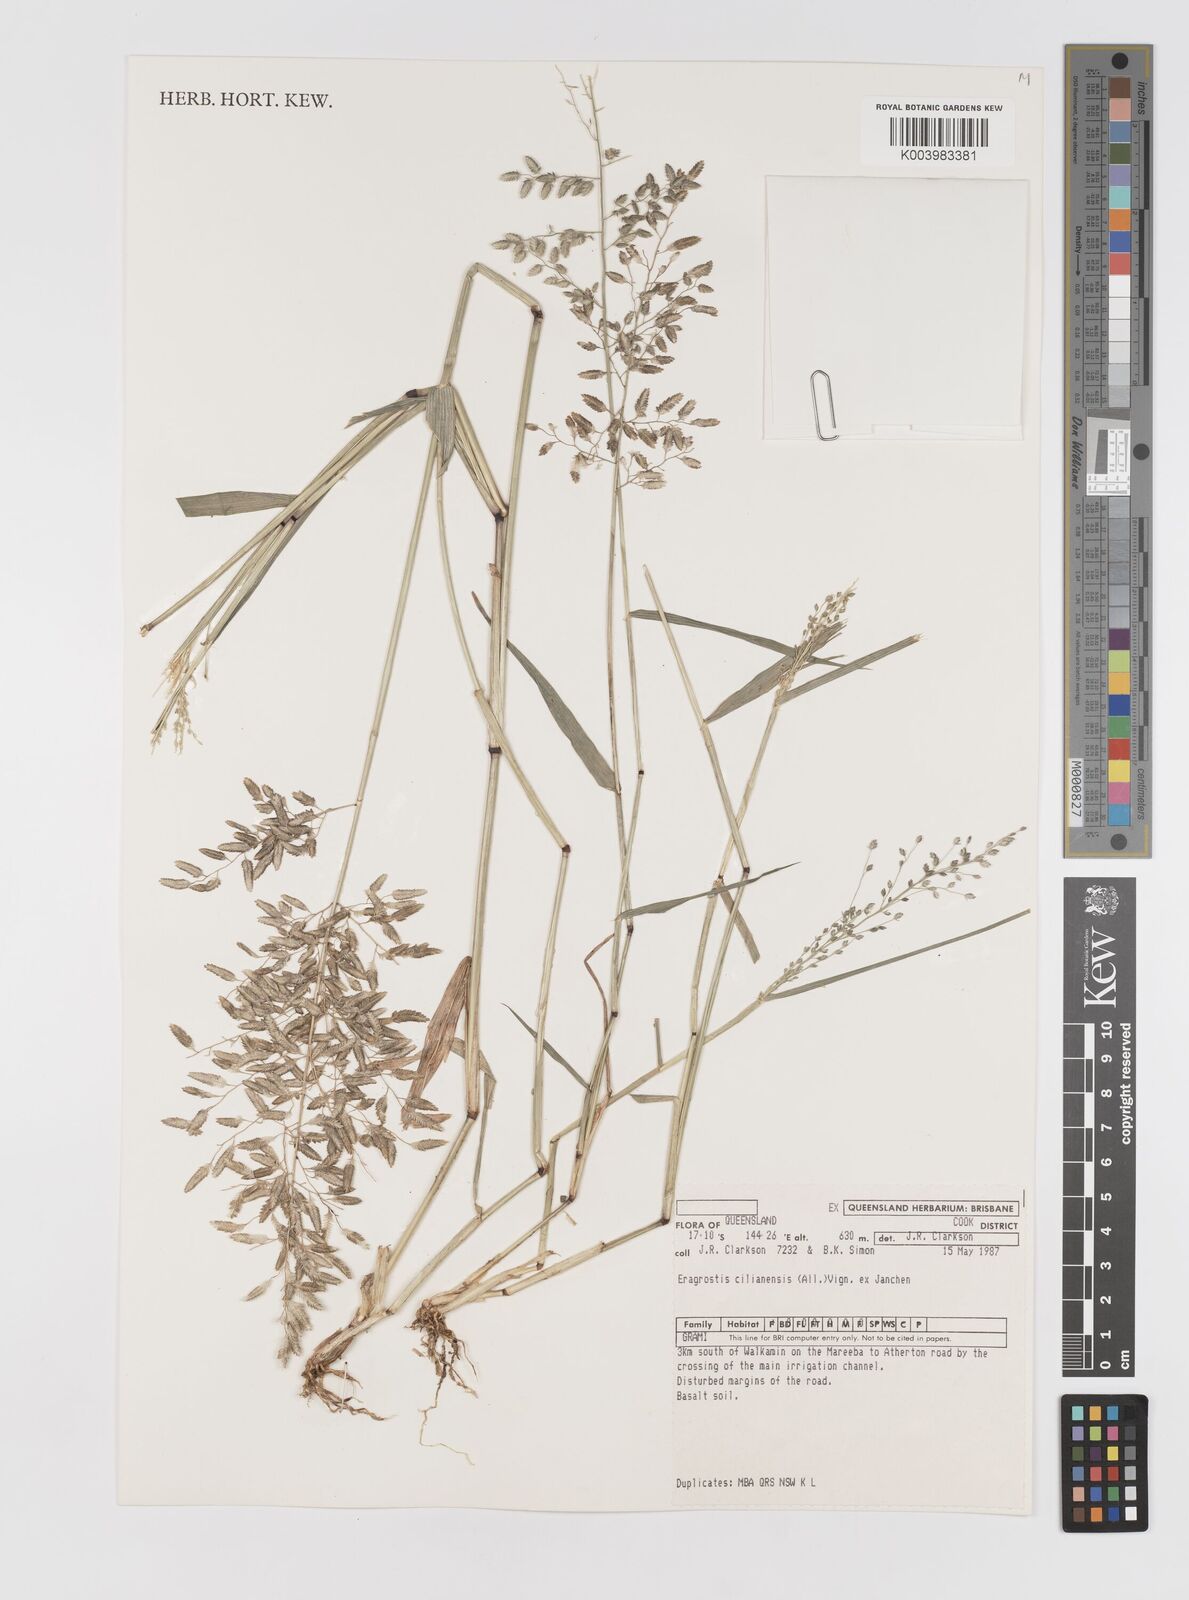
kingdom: Plantae
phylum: Tracheophyta
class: Liliopsida
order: Poales
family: Poaceae
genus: Eragrostis
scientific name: Eragrostis cilianensis
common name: Stinkgrass
